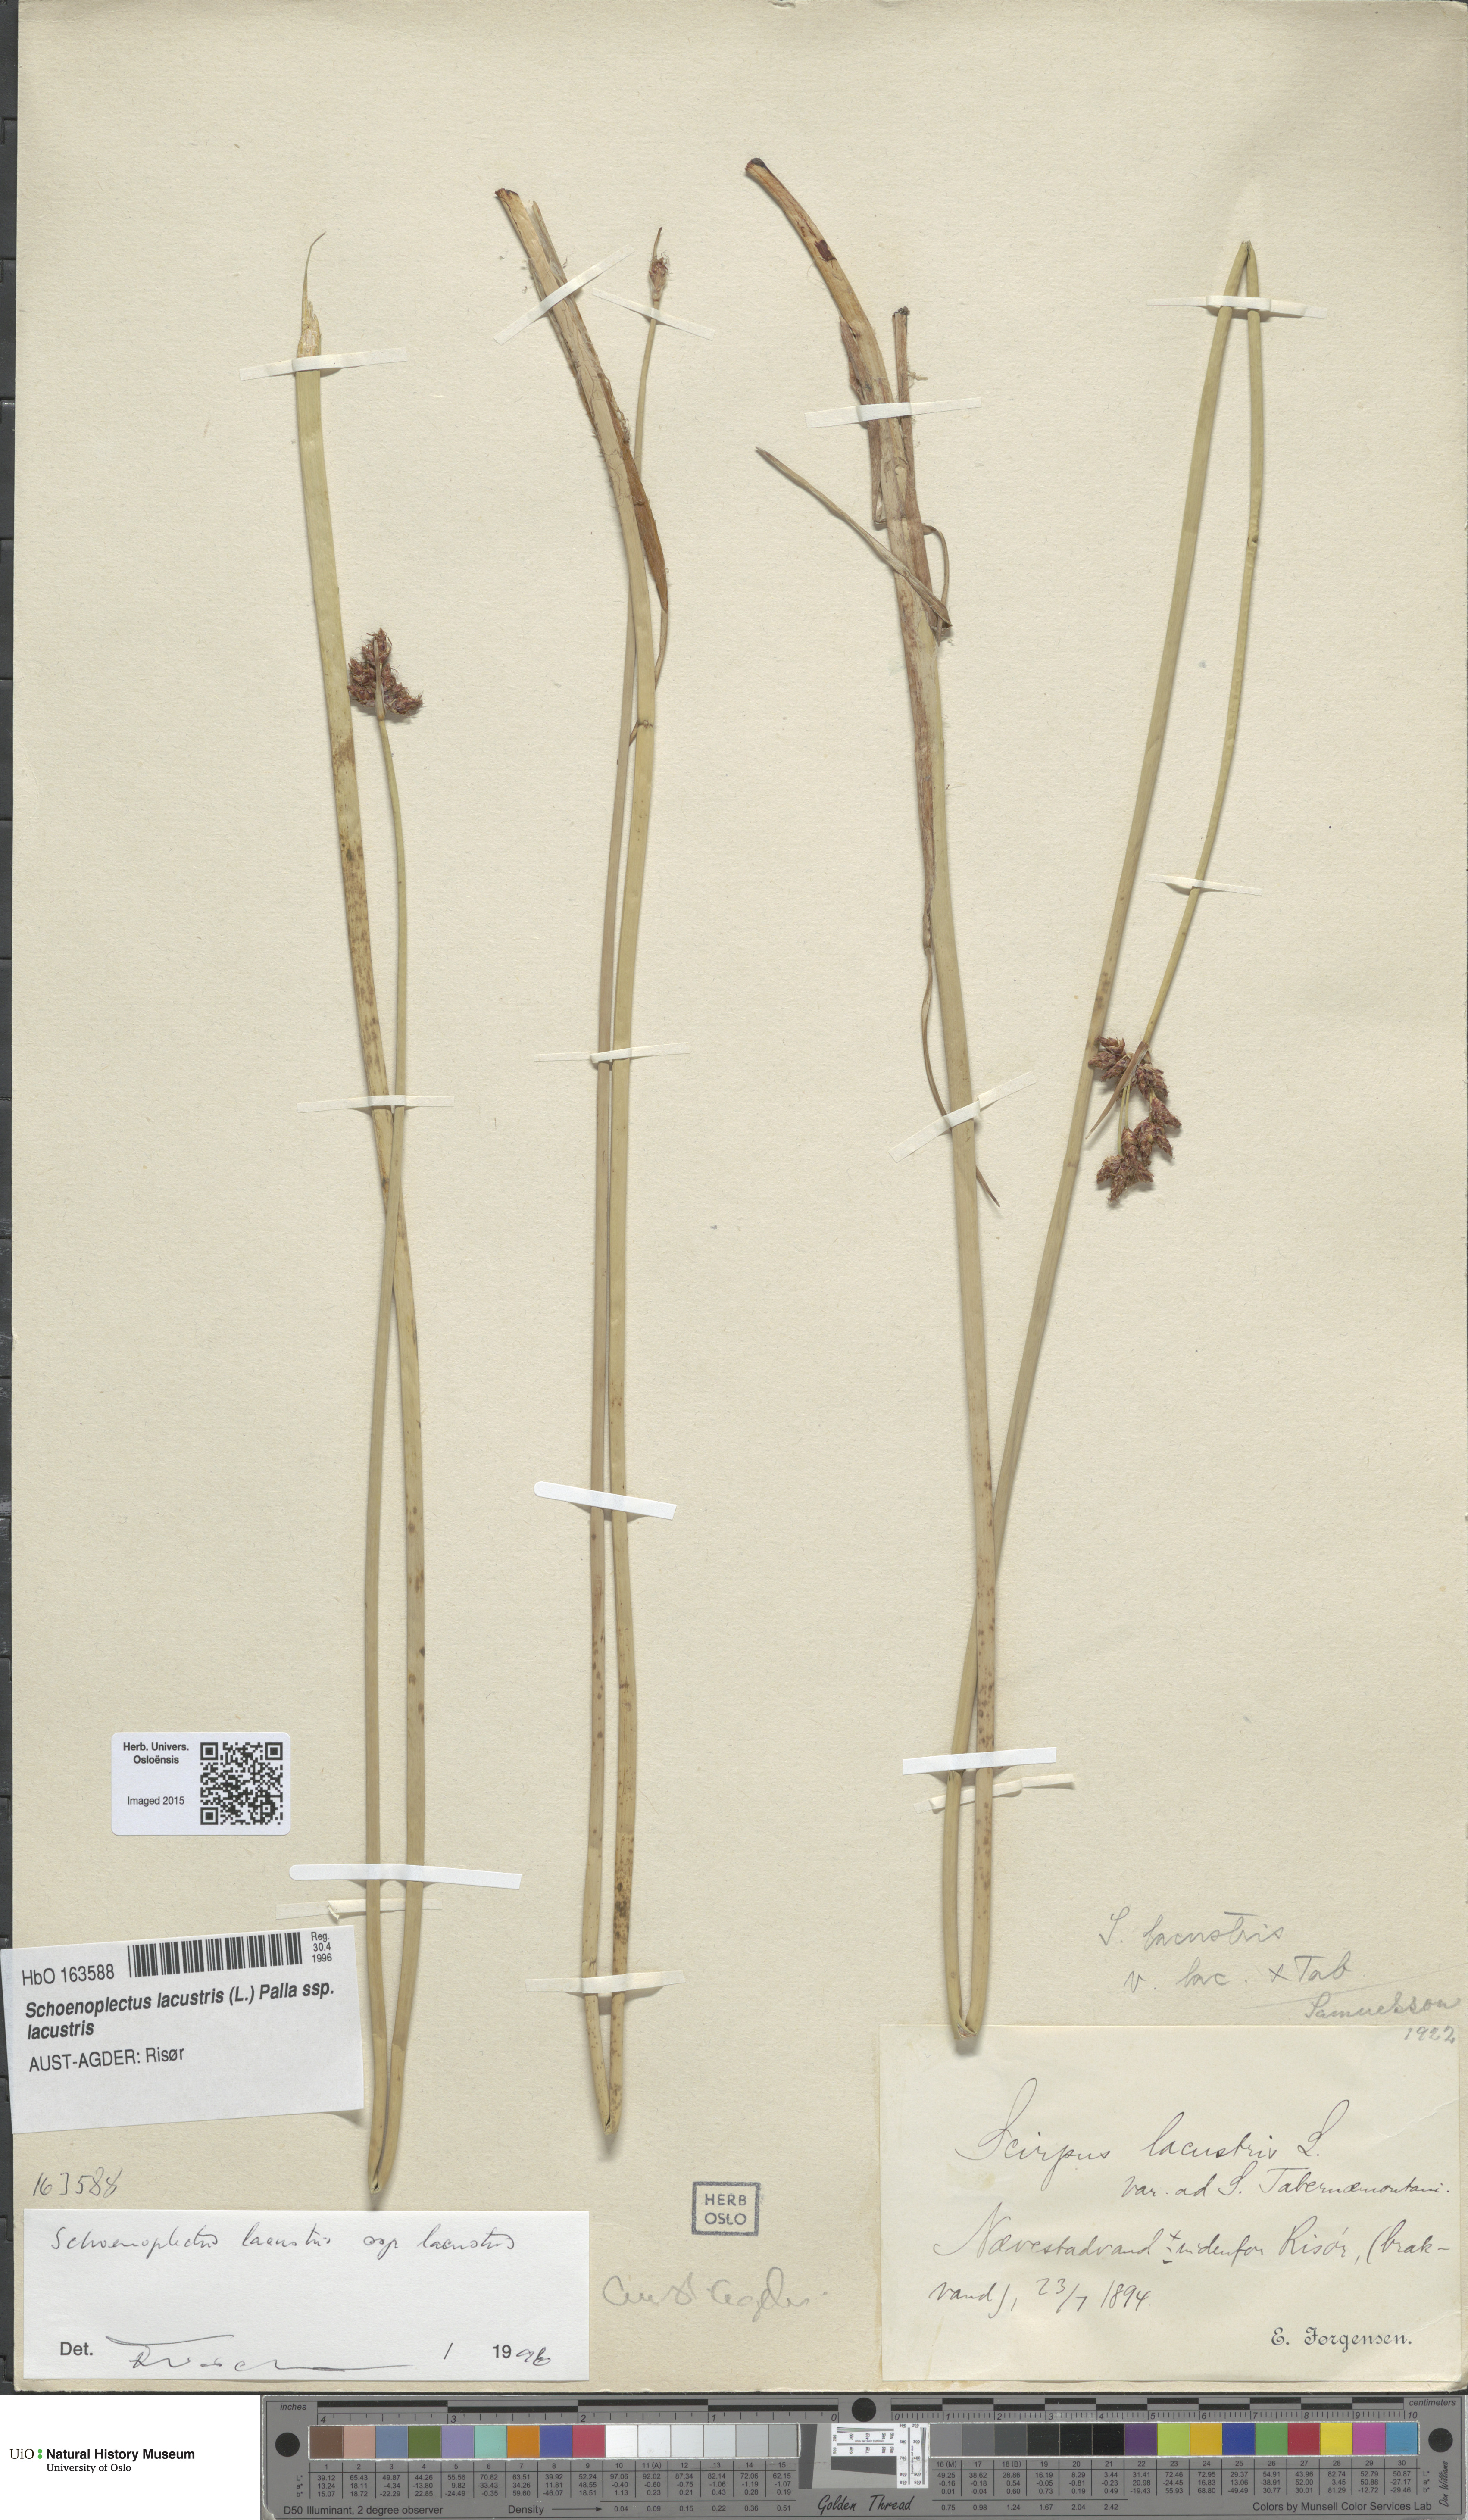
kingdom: Plantae
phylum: Tracheophyta
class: Liliopsida
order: Poales
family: Cyperaceae
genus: Schoenoplectus
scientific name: Schoenoplectus lacustris
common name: Common club-rush
